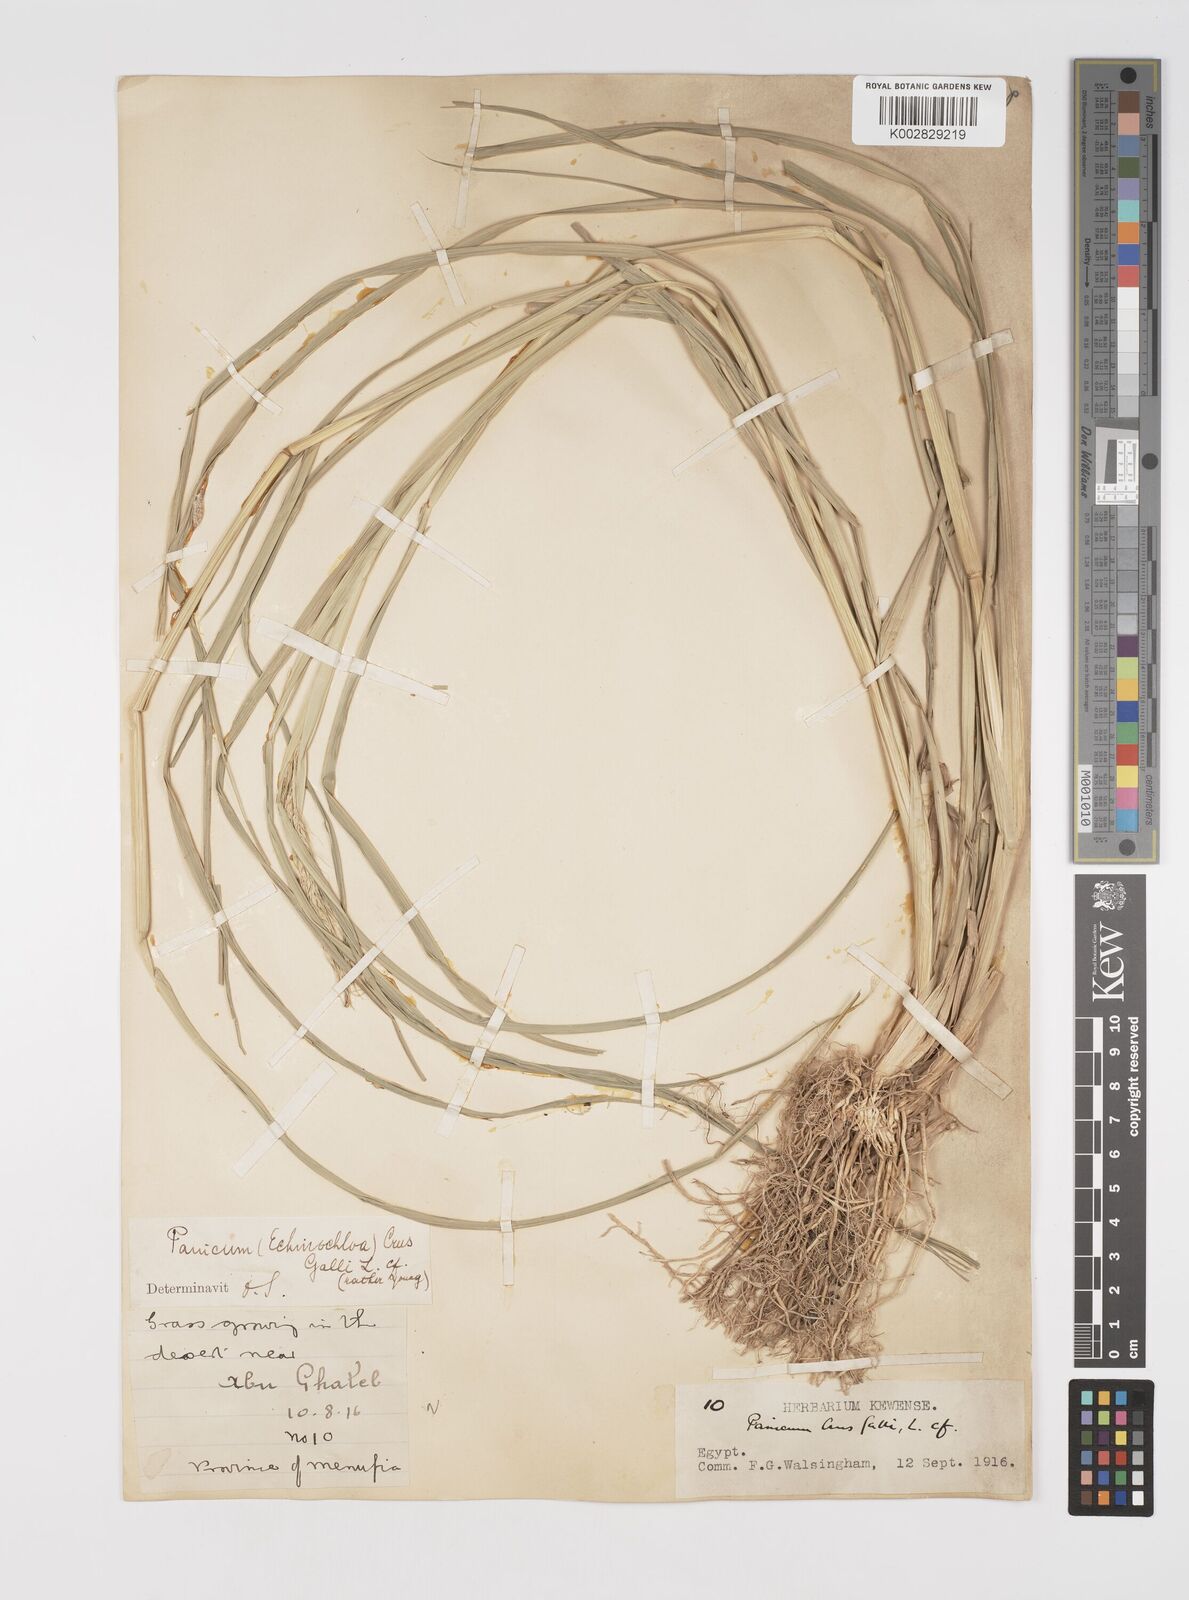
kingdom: Plantae
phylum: Tracheophyta
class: Liliopsida
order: Poales
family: Poaceae
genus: Echinochloa
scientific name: Echinochloa crus-galli
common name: Cockspur
